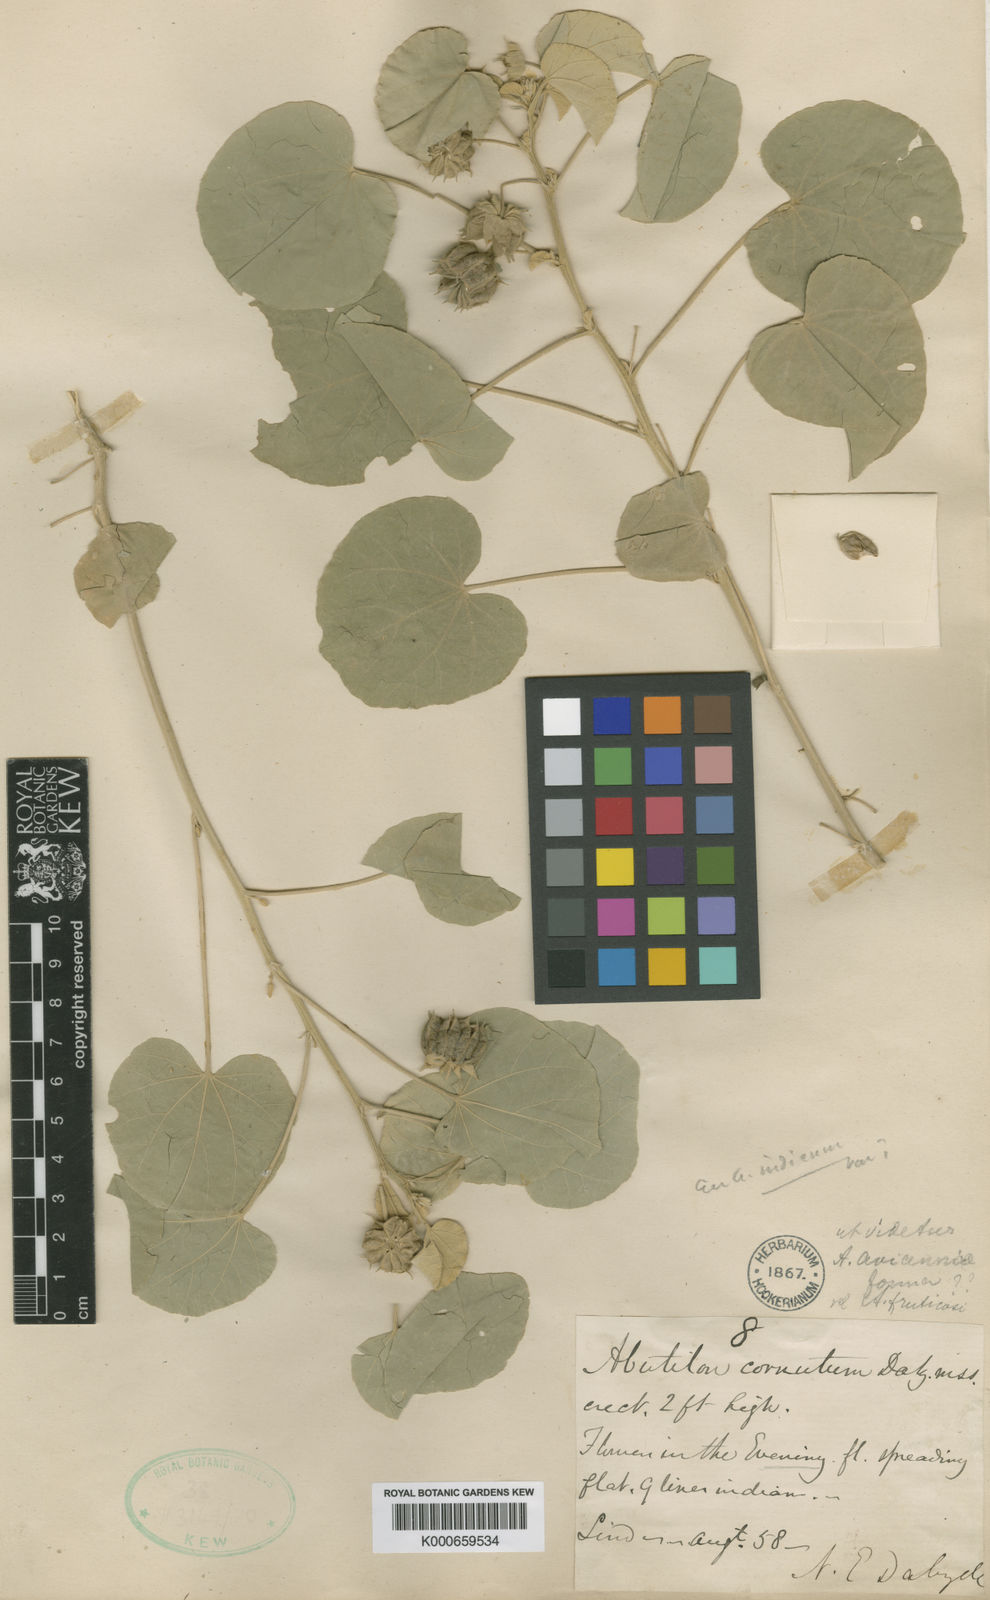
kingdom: Plantae
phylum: Tracheophyta
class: Magnoliopsida
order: Malvales
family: Malvaceae
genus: Abutilon
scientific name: Abutilon
